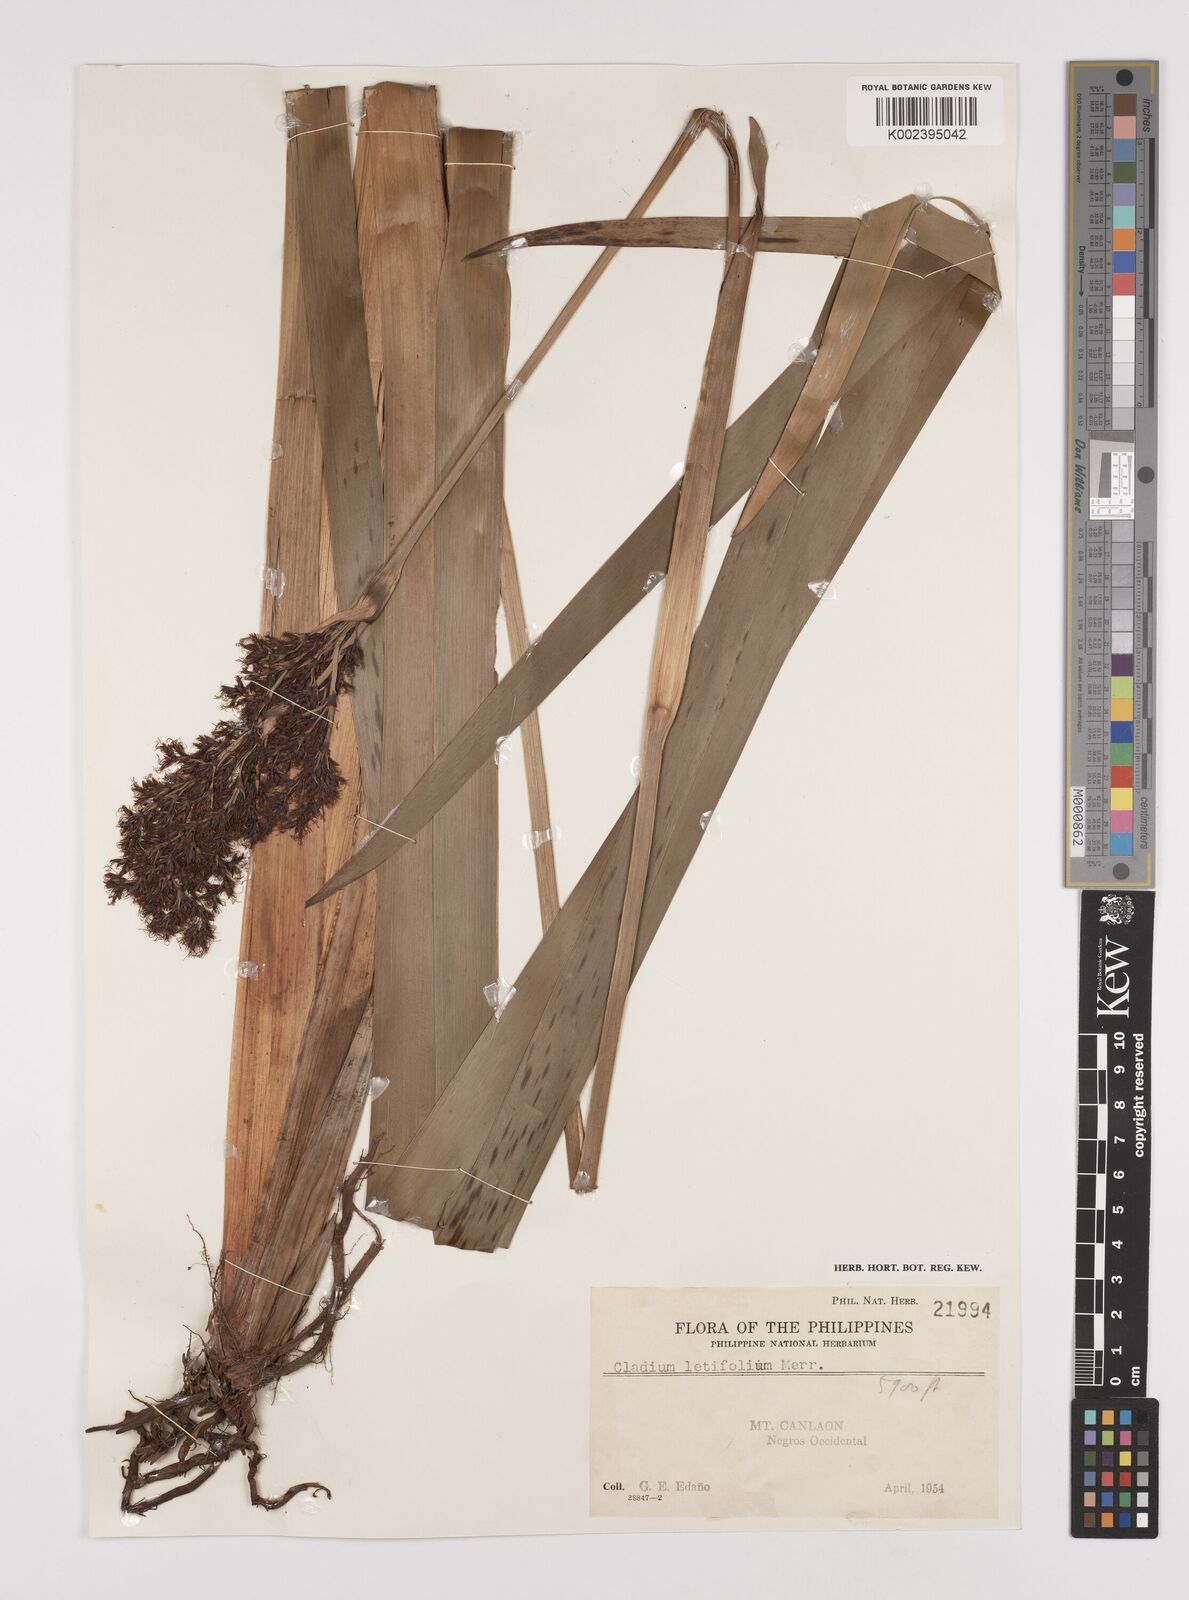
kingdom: Plantae
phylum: Tracheophyta
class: Liliopsida
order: Poales
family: Cyperaceae
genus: Machaerina
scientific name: Machaerina falcata
